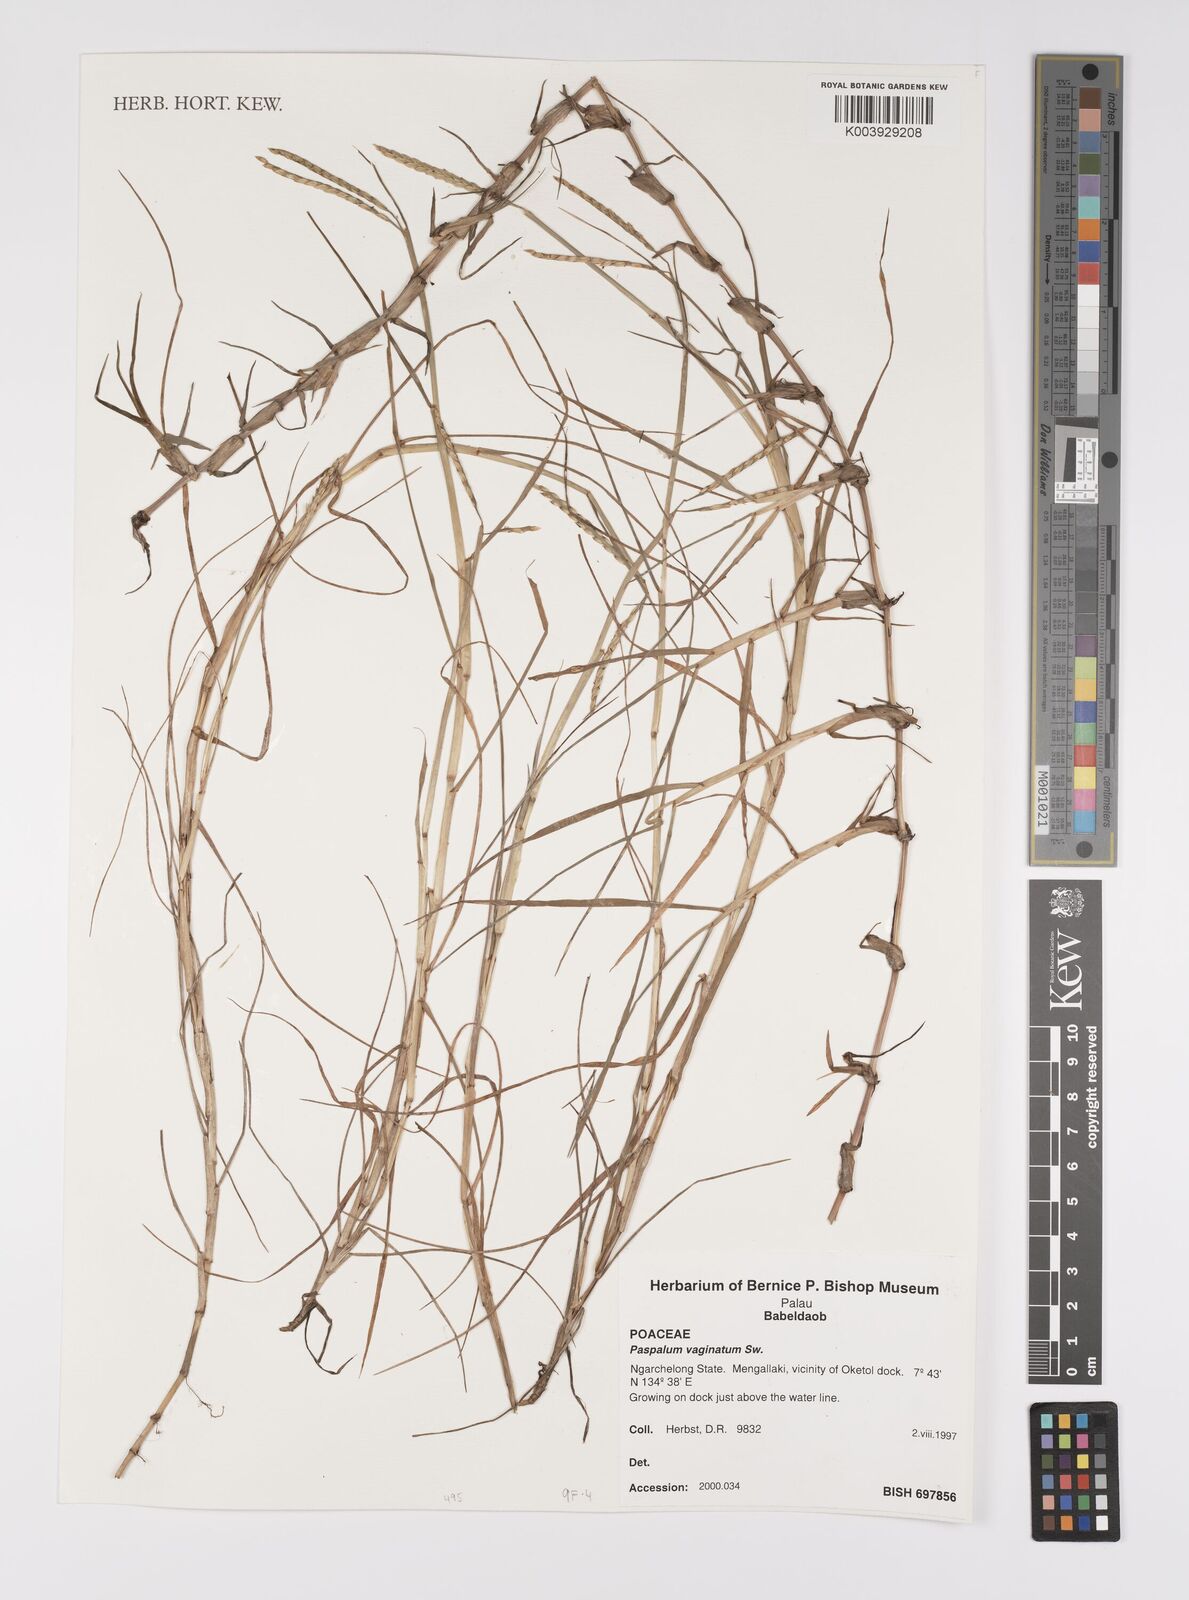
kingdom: Plantae
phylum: Tracheophyta
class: Liliopsida
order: Poales
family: Poaceae
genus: Paspalum
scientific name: Paspalum vaginatum
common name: Seashore paspalum
